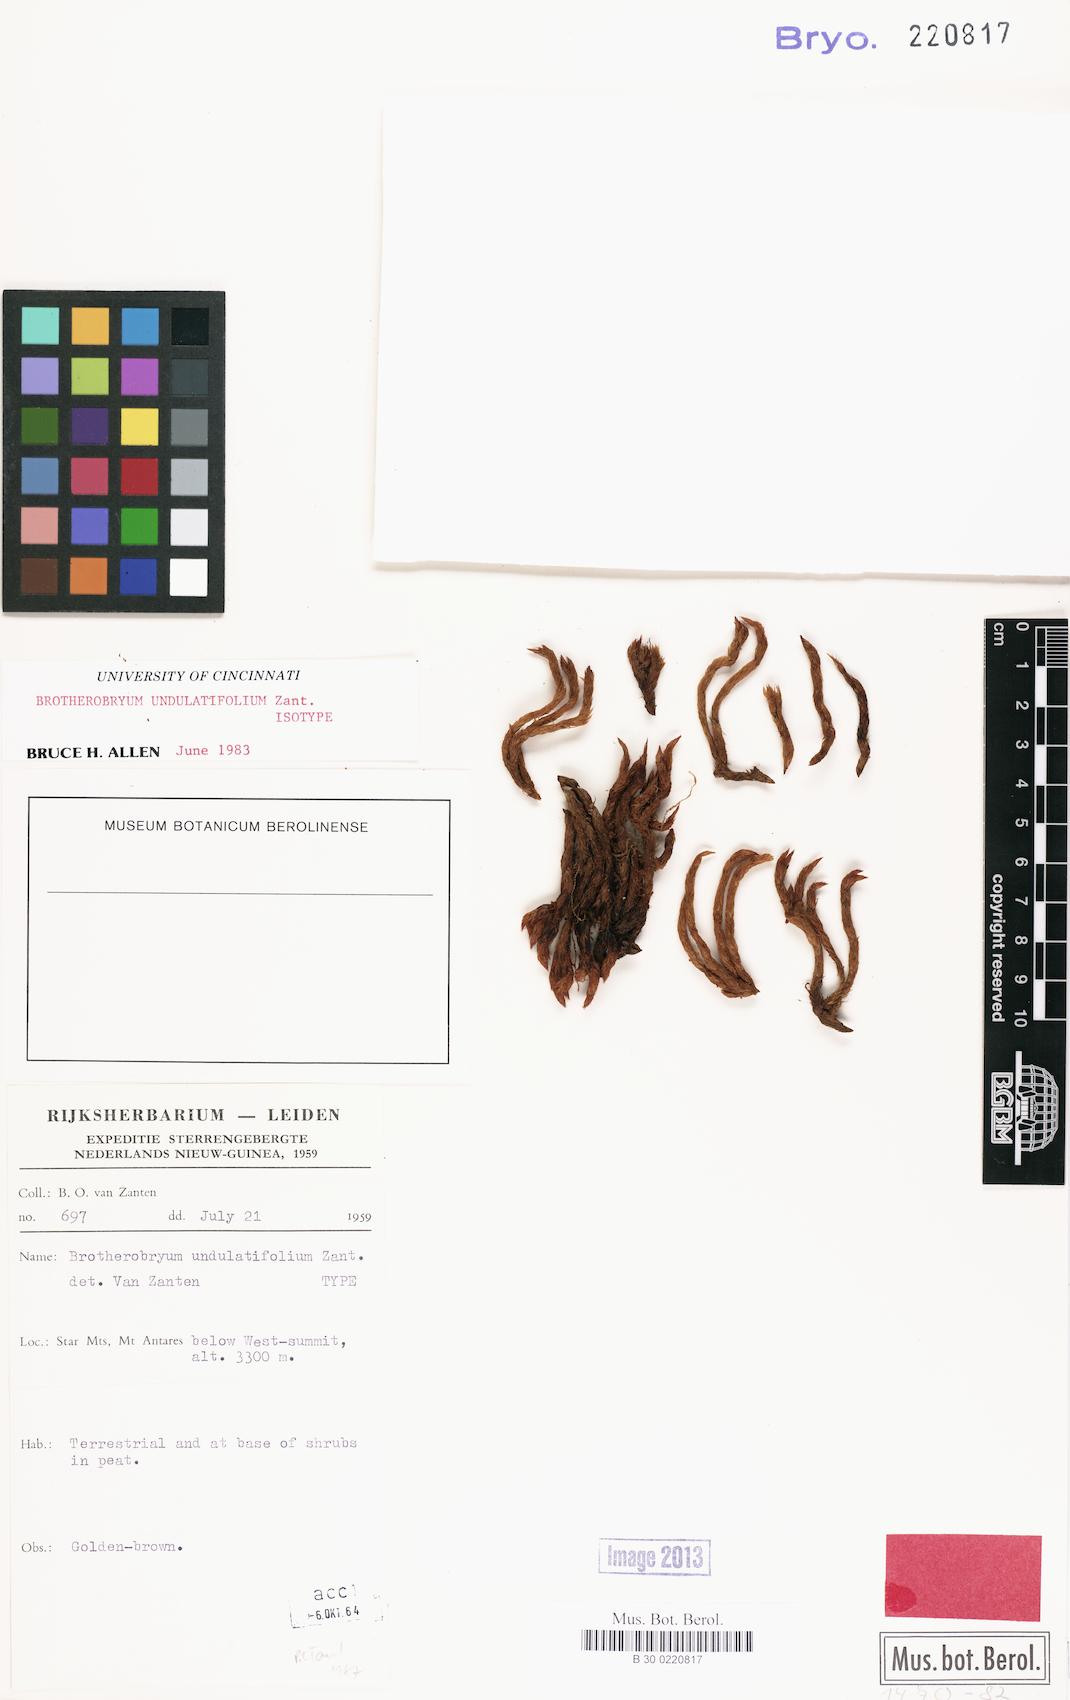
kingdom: Plantae
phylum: Bryophyta
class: Bryopsida
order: Dicranales
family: Dicranaceae
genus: Brotherobryum
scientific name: Brotherobryum undulatifolium
